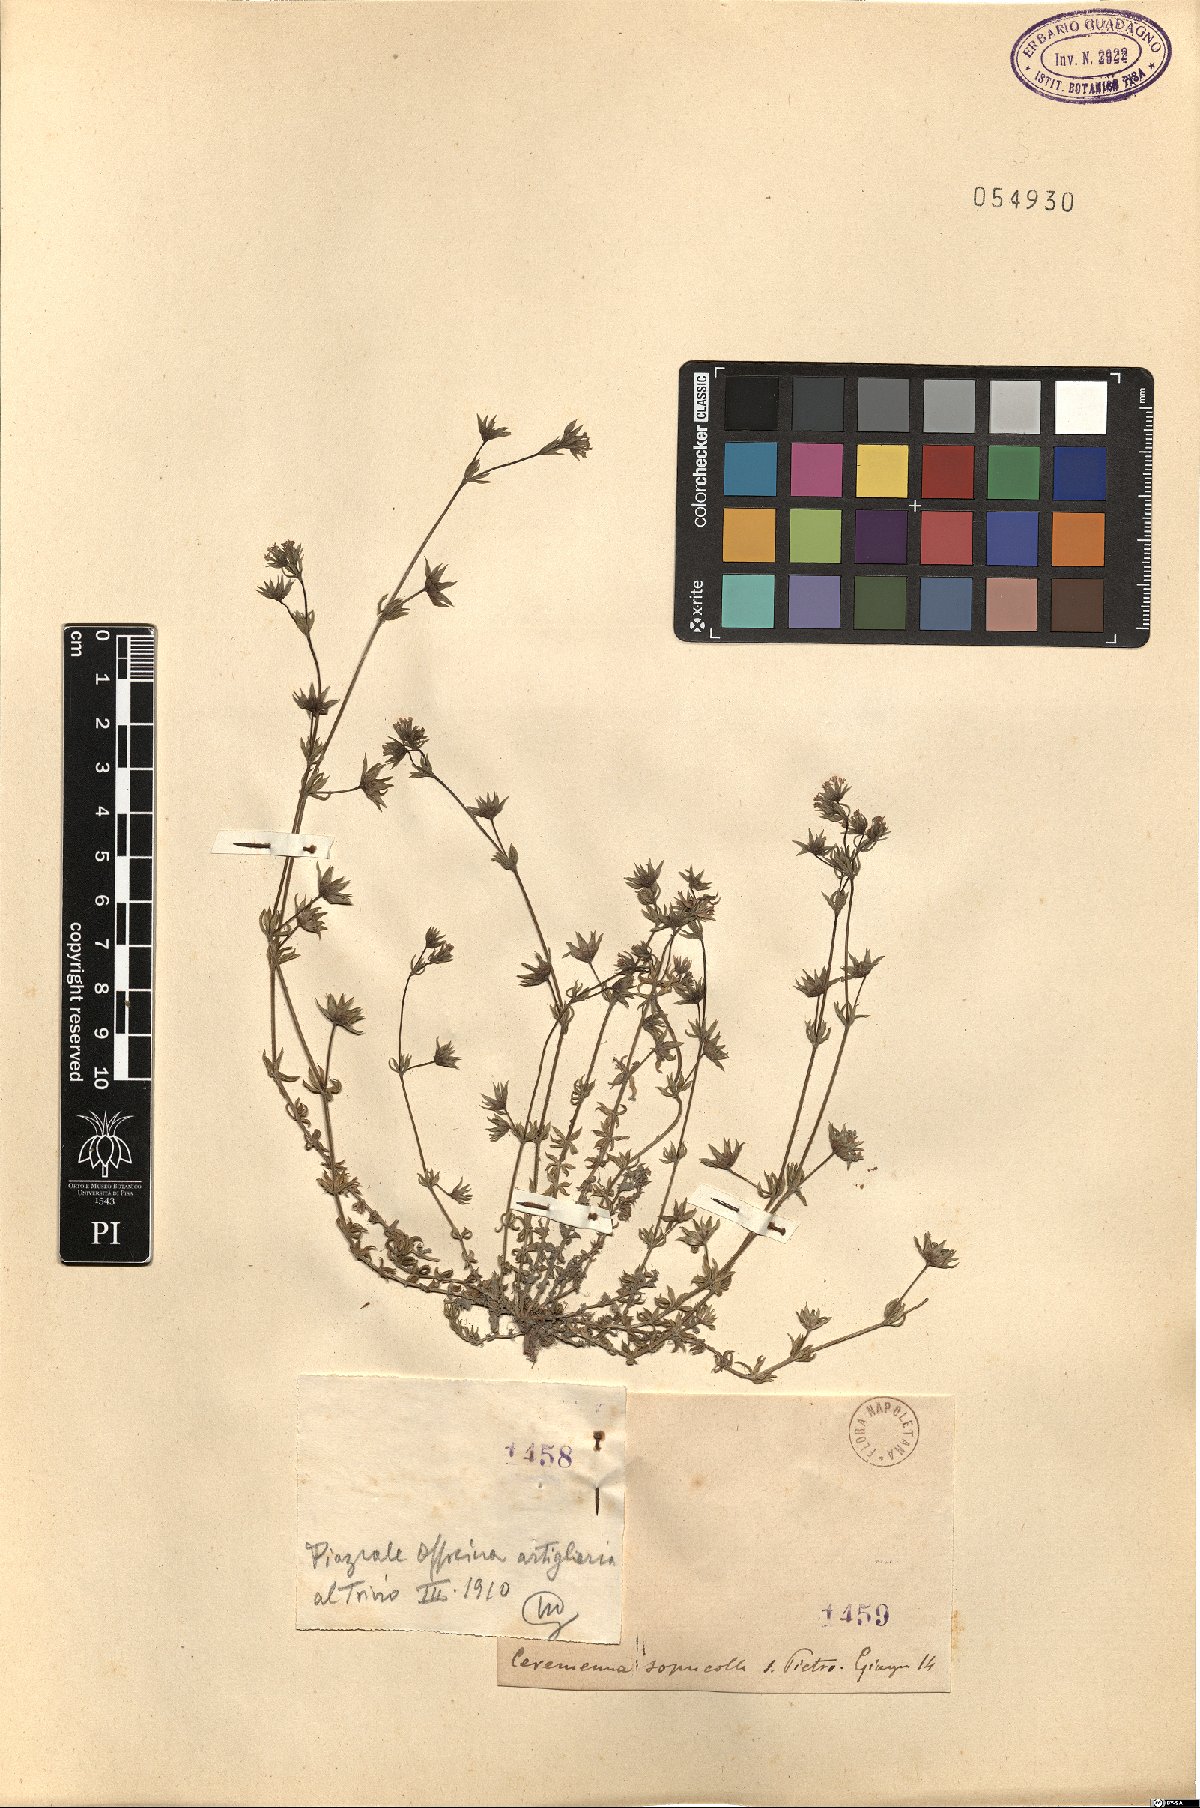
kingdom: Plantae
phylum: Tracheophyta
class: Magnoliopsida
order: Gentianales
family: Rubiaceae
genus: Sherardia
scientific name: Sherardia
